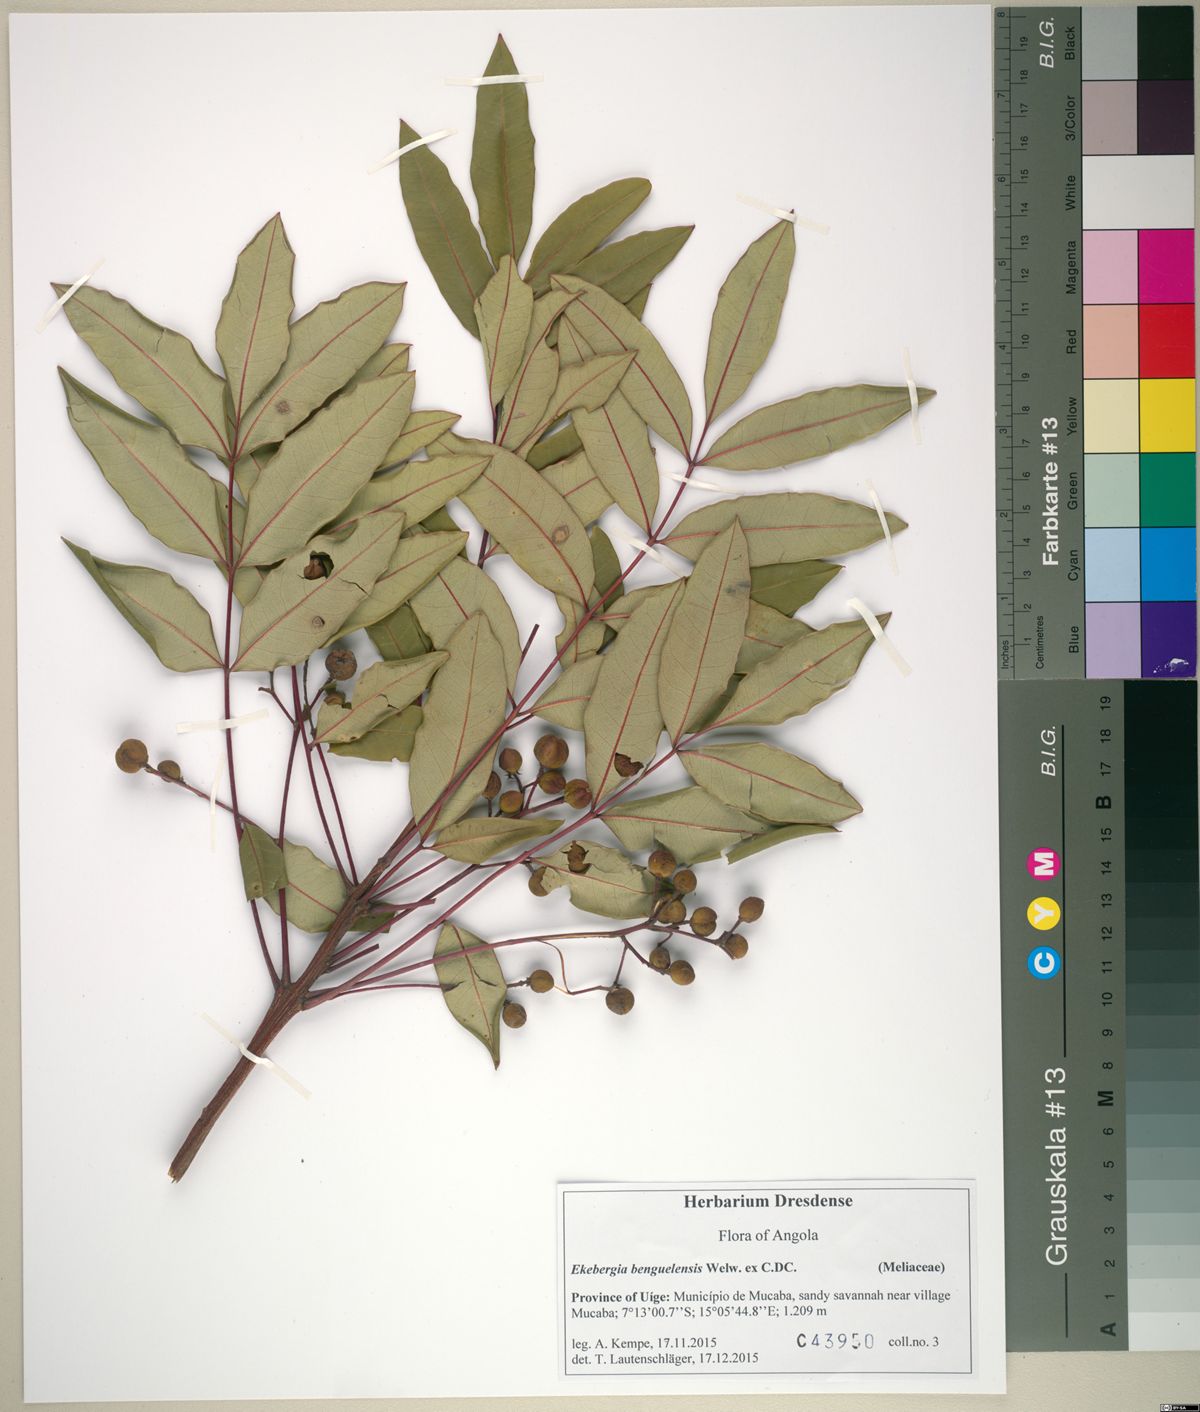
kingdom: Plantae
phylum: Tracheophyta
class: Magnoliopsida
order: Sapindales
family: Meliaceae
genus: Ekebergia
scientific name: Ekebergia benguelensis
